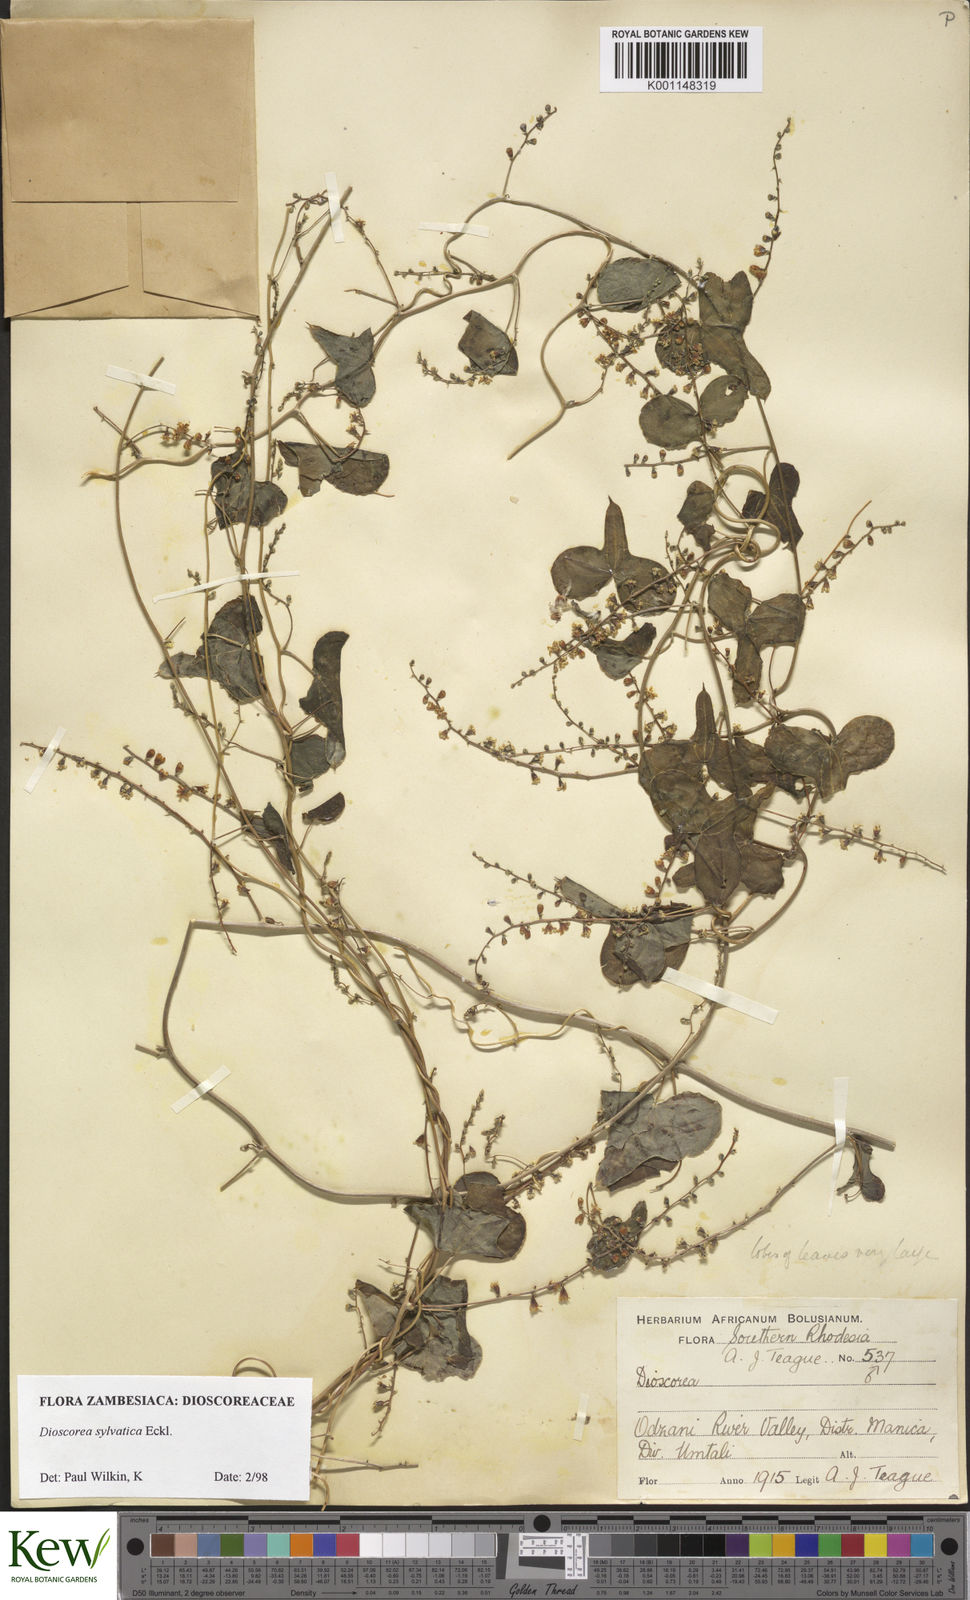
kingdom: Plantae
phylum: Tracheophyta
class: Liliopsida
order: Dioscoreales
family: Dioscoreaceae
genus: Dioscorea
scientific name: Dioscorea sylvatica
